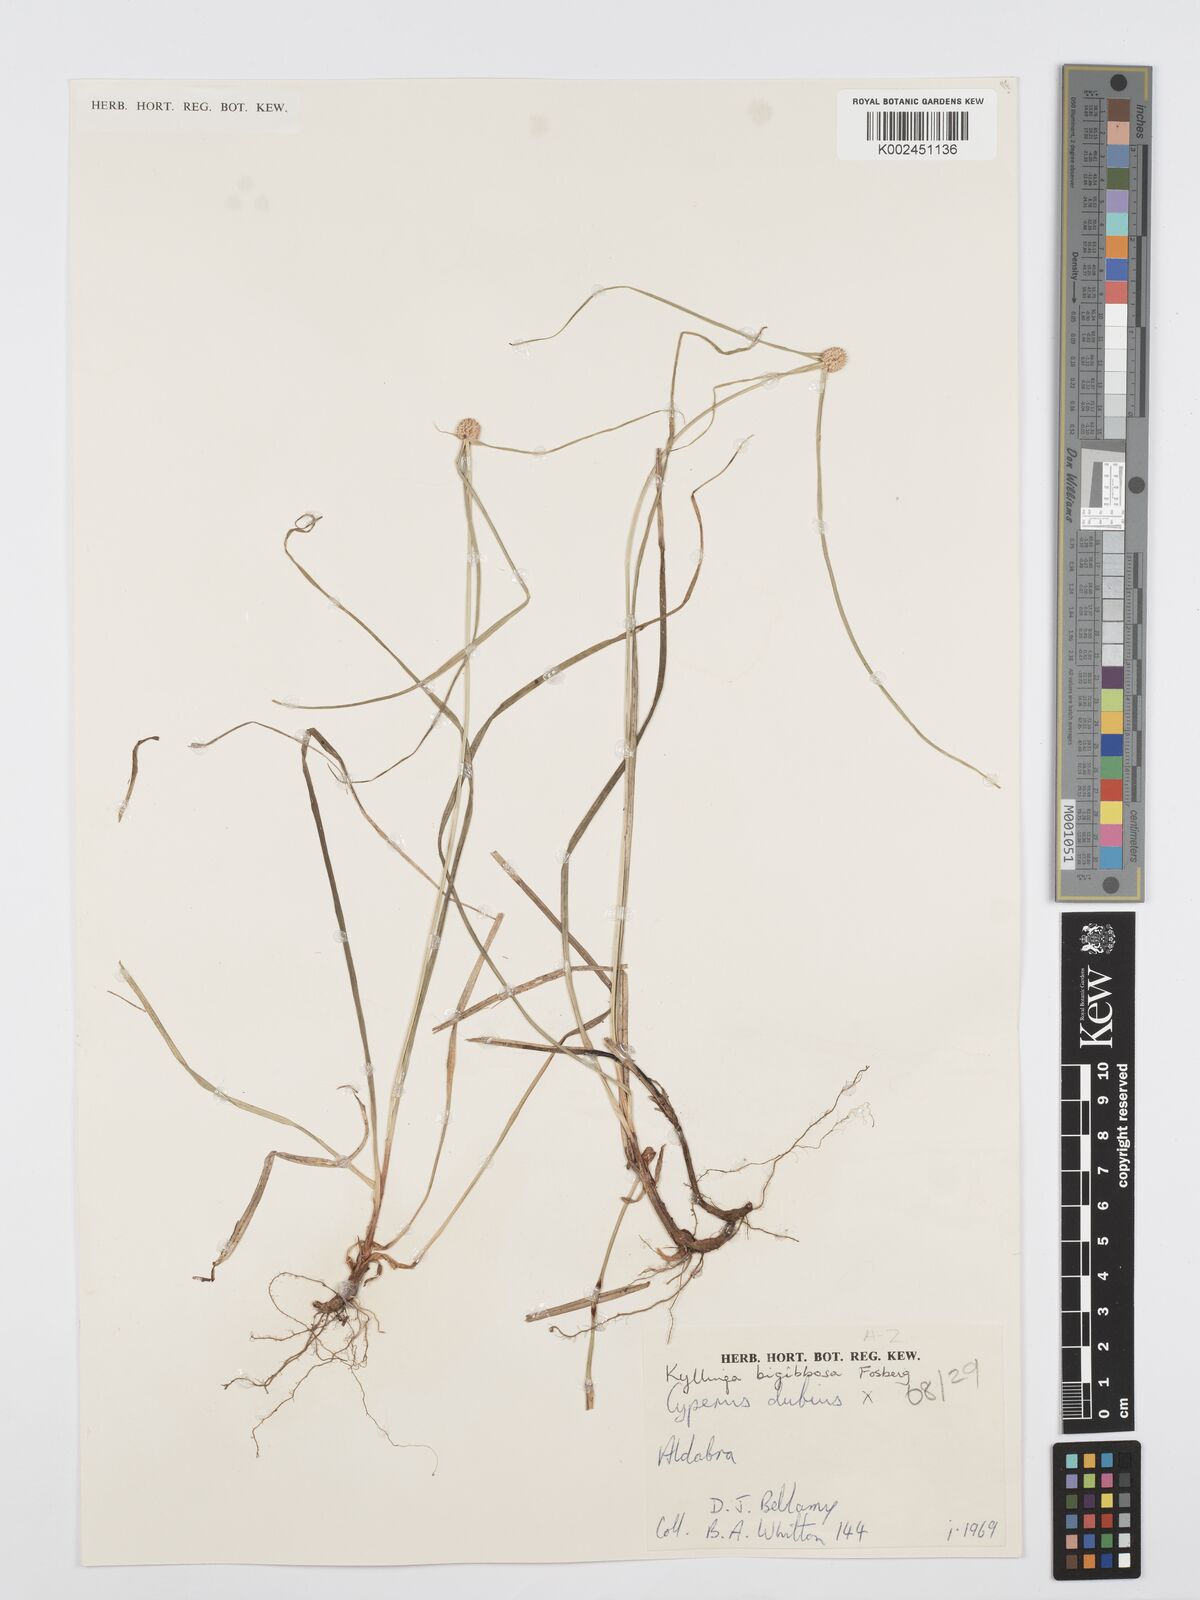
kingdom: Plantae
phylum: Tracheophyta
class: Liliopsida
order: Poales
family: Cyperaceae
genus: Cyperus
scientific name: Cyperus bigibbosa
